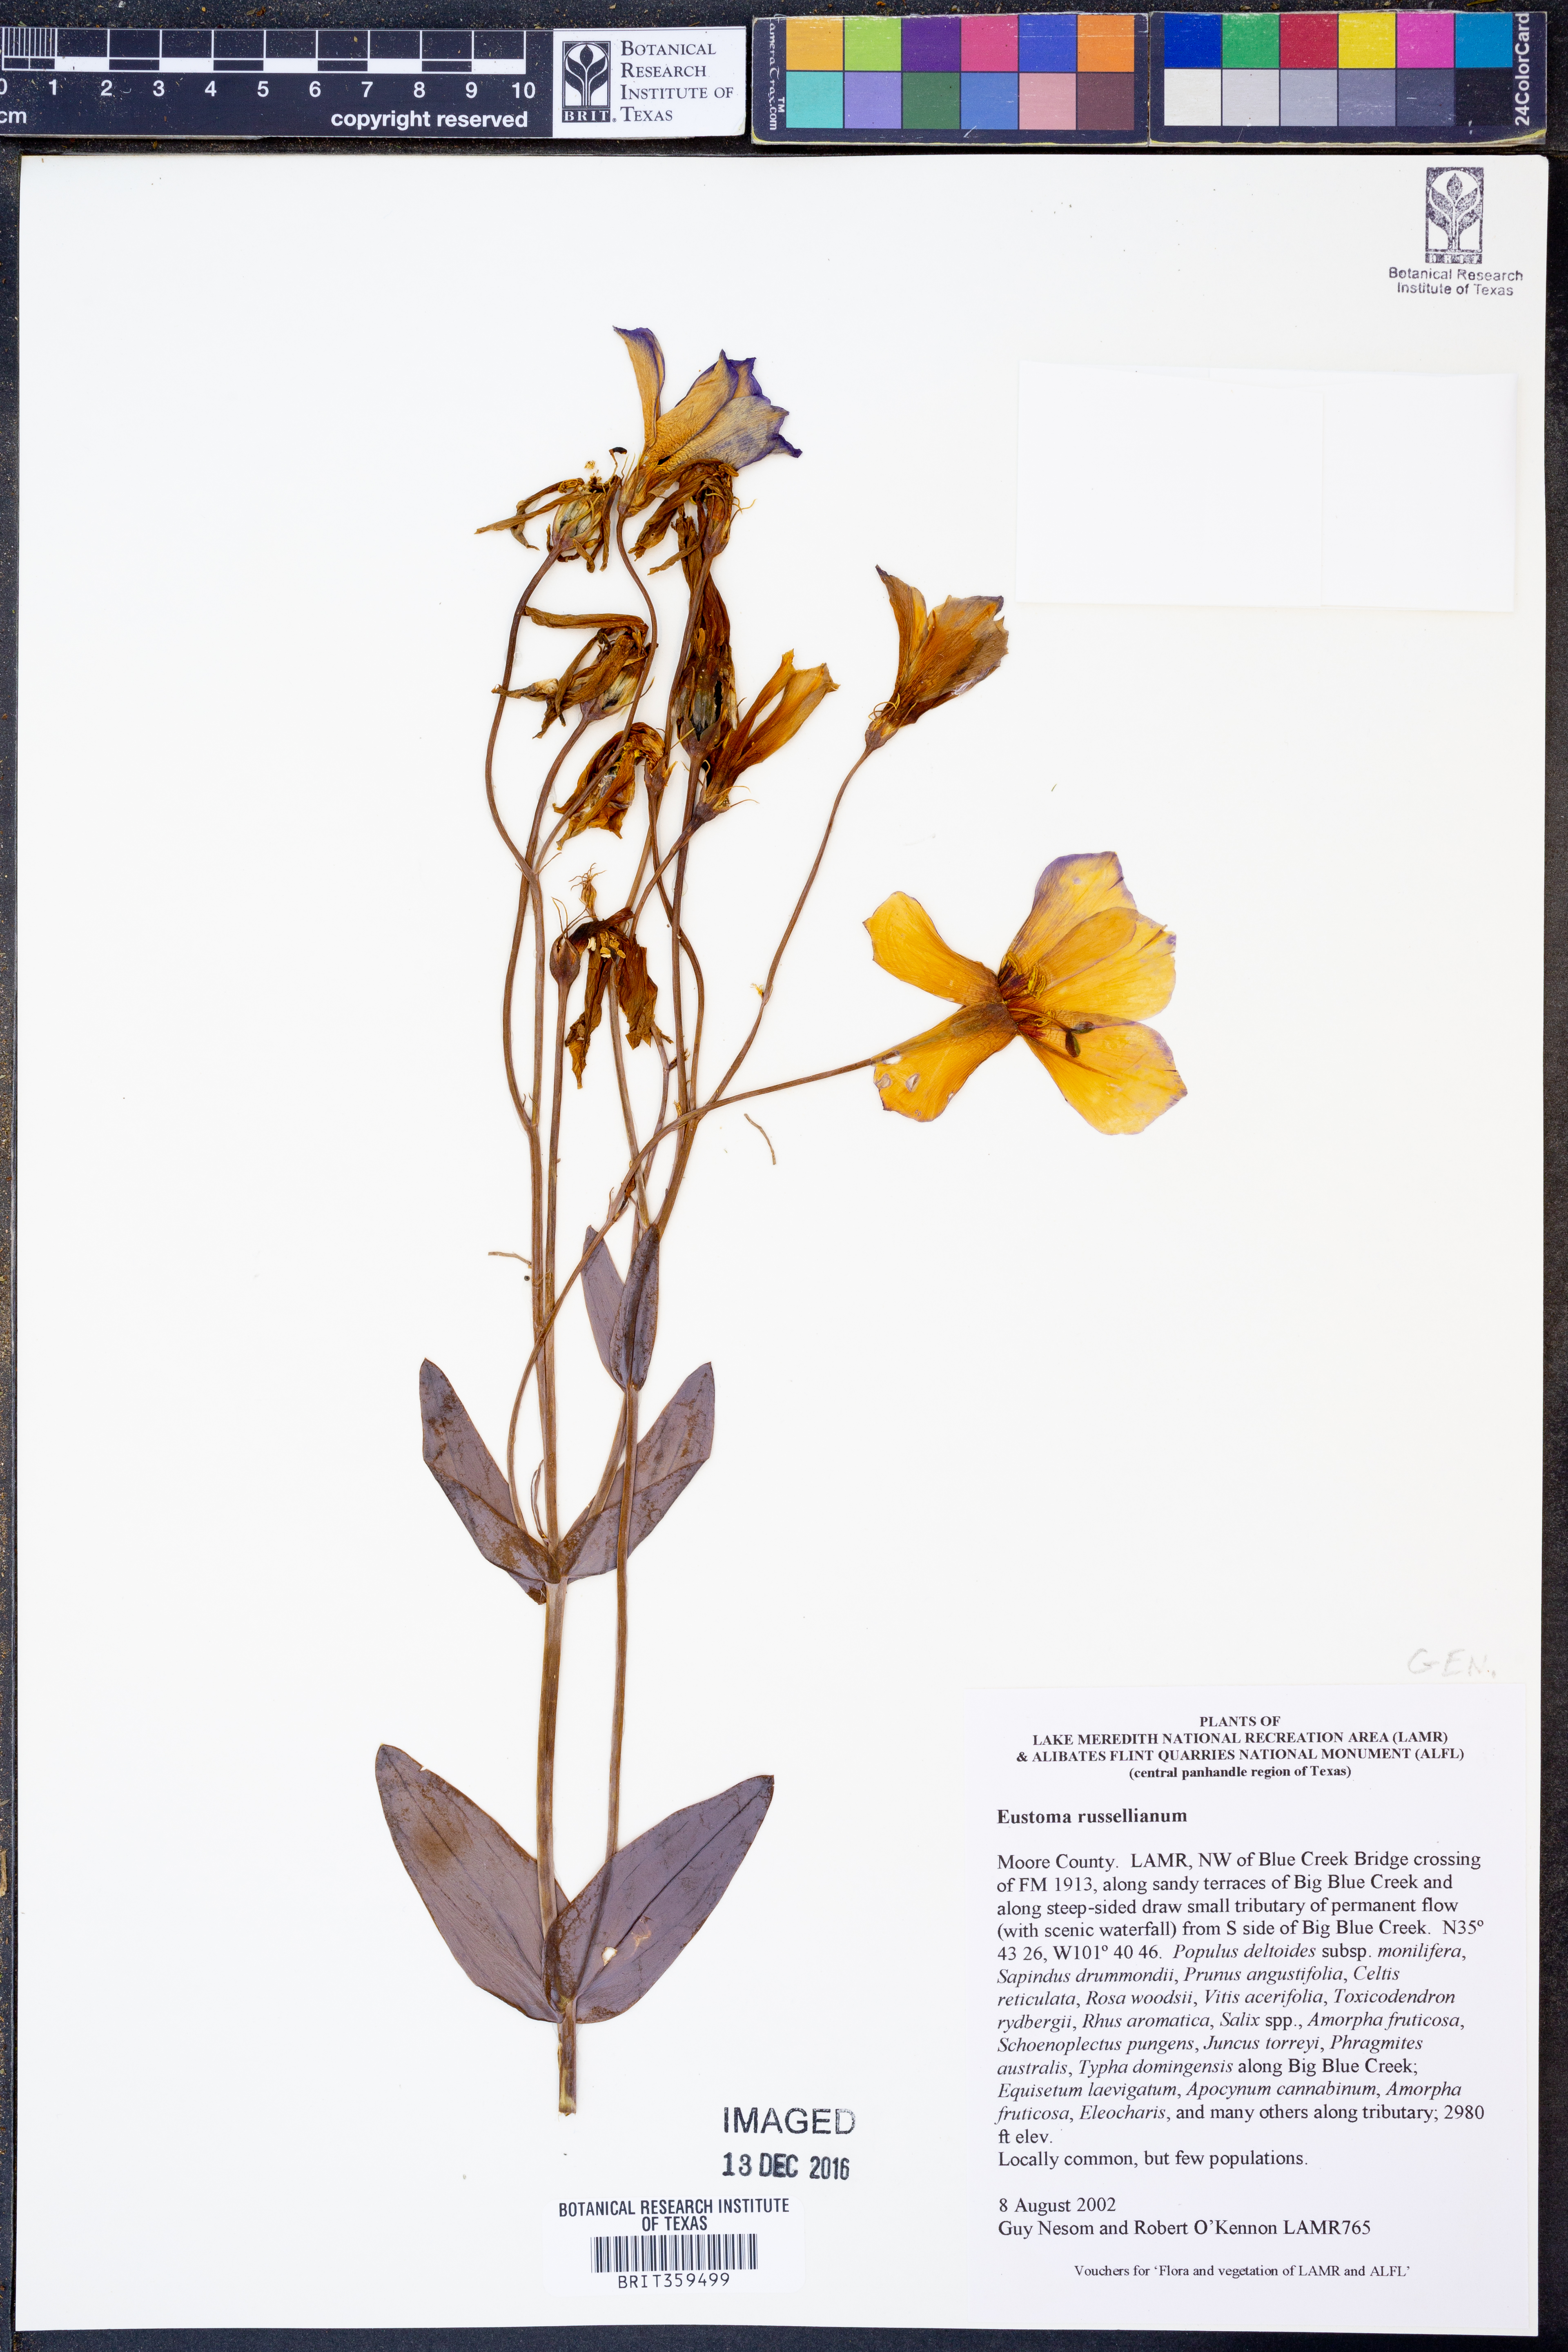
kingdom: Plantae
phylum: Tracheophyta
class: Magnoliopsida
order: Gentianales
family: Gentianaceae
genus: Eustoma
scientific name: Eustoma russellianum
